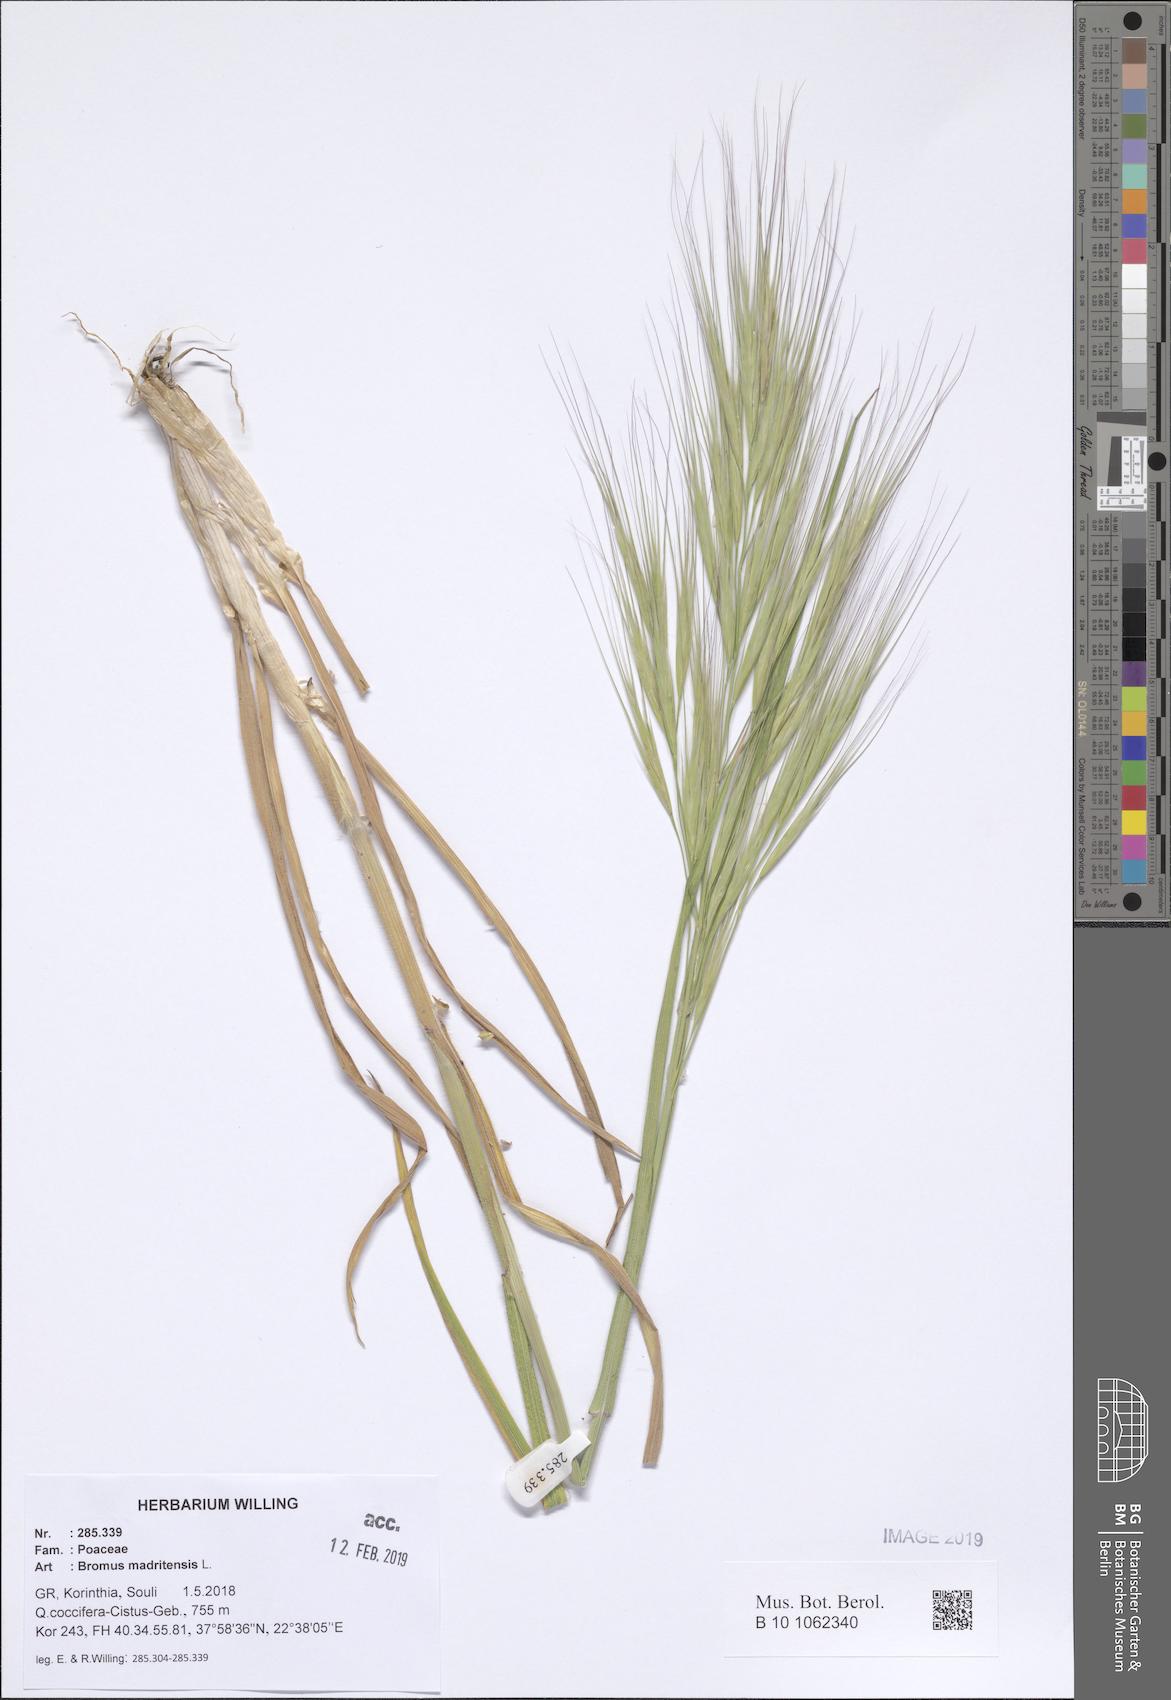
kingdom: Plantae
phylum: Tracheophyta
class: Liliopsida
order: Poales
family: Poaceae
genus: Bromus
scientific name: Bromus madritensis
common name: Compact brome
